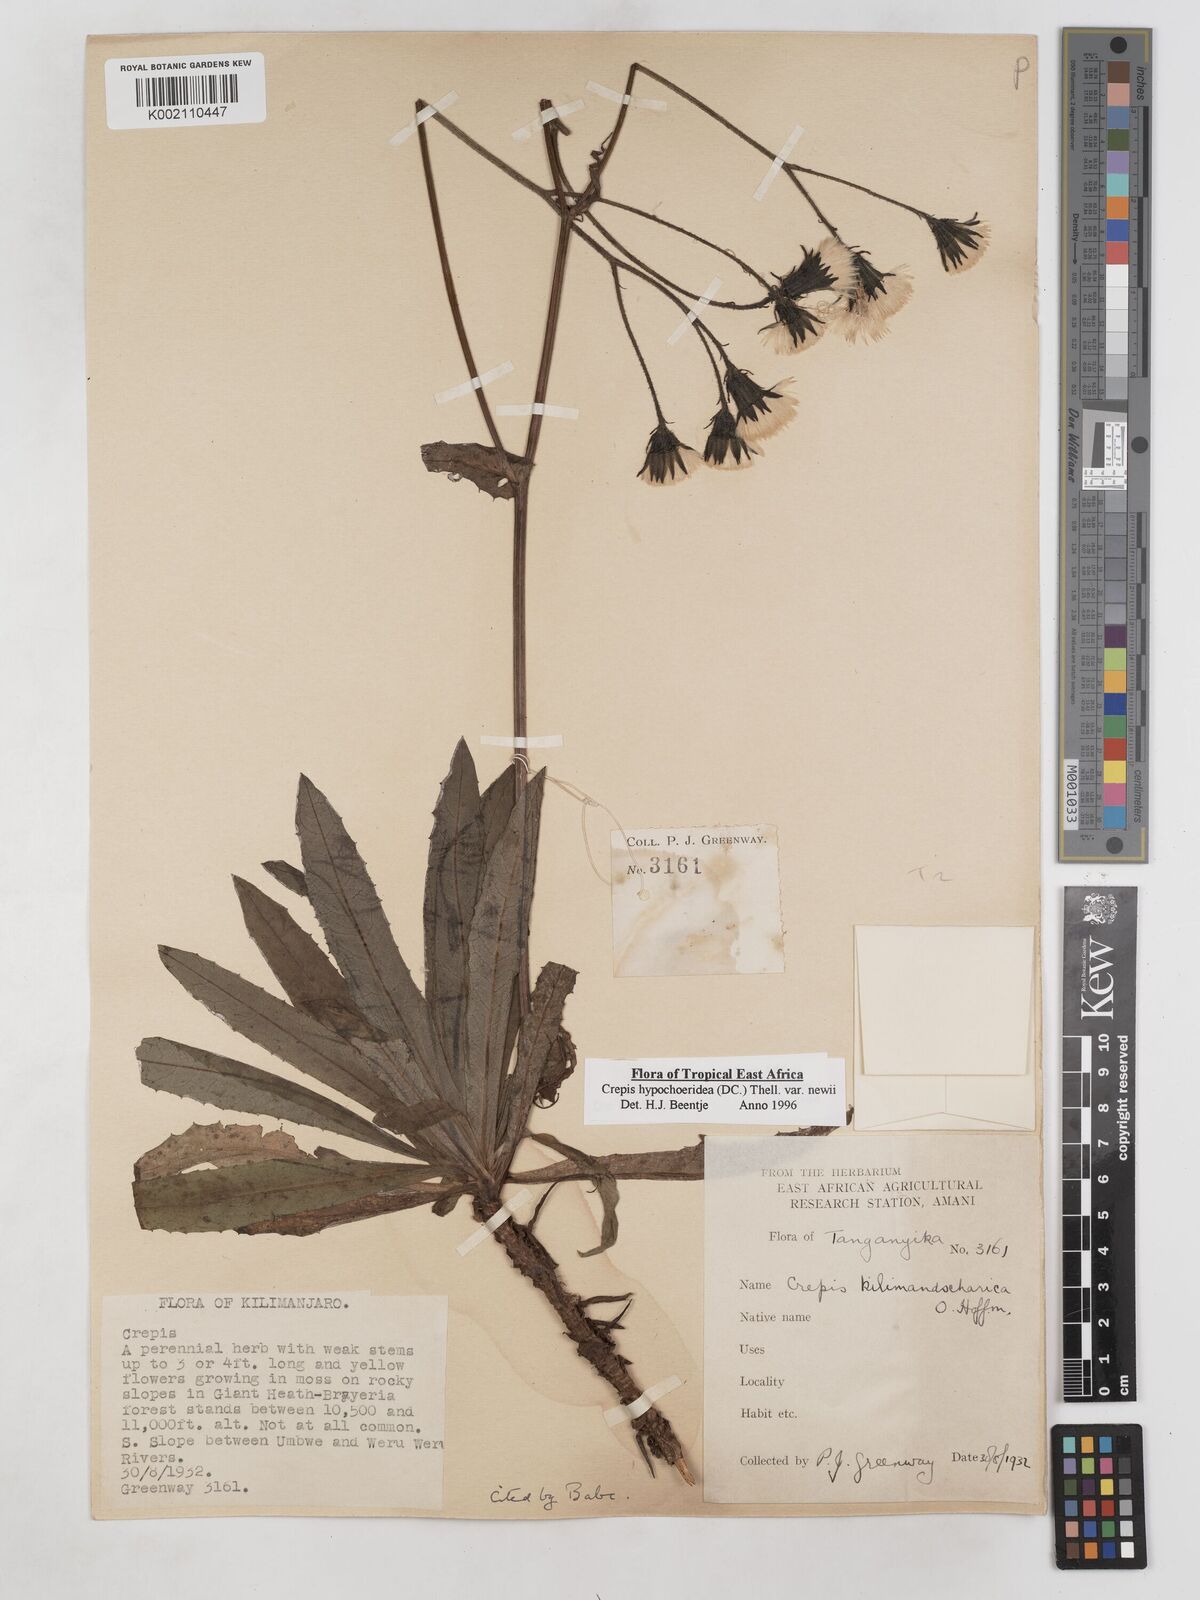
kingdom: Plantae
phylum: Tracheophyta
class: Magnoliopsida
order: Asterales
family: Asteraceae
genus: Crepis
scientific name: Crepis hypochoeridea
